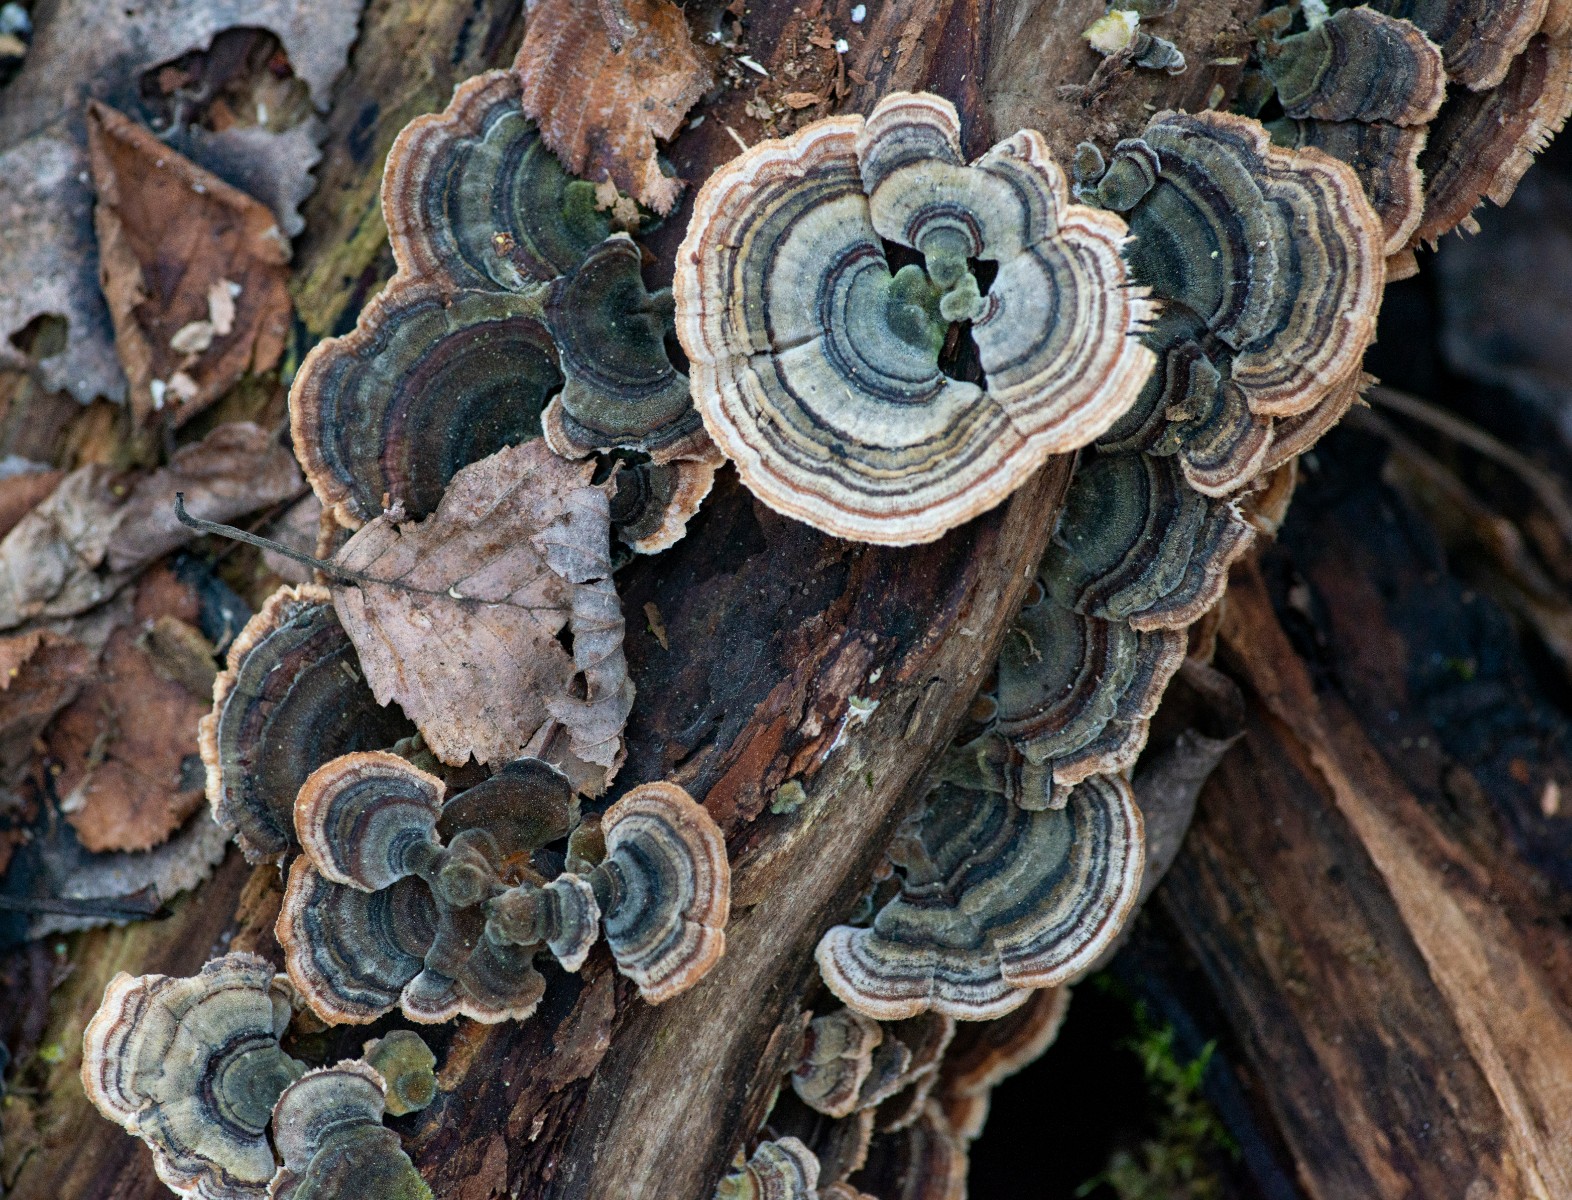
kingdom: Fungi
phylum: Basidiomycota
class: Agaricomycetes
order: Polyporales
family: Polyporaceae
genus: Trametes
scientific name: Trametes versicolor
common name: broget læderporesvamp
